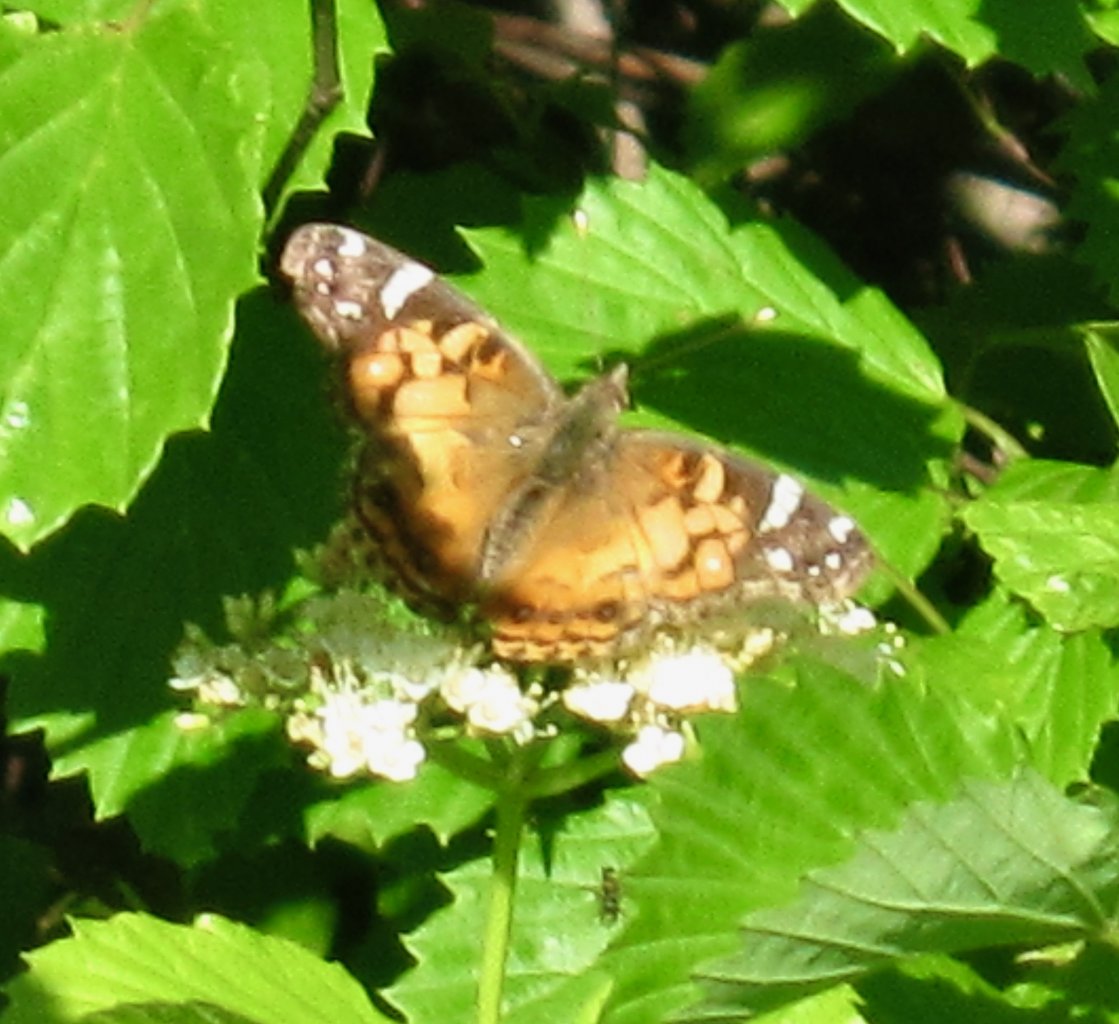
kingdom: Animalia
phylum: Arthropoda
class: Insecta
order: Lepidoptera
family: Nymphalidae
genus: Vanessa
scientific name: Vanessa virginiensis
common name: American Lady
